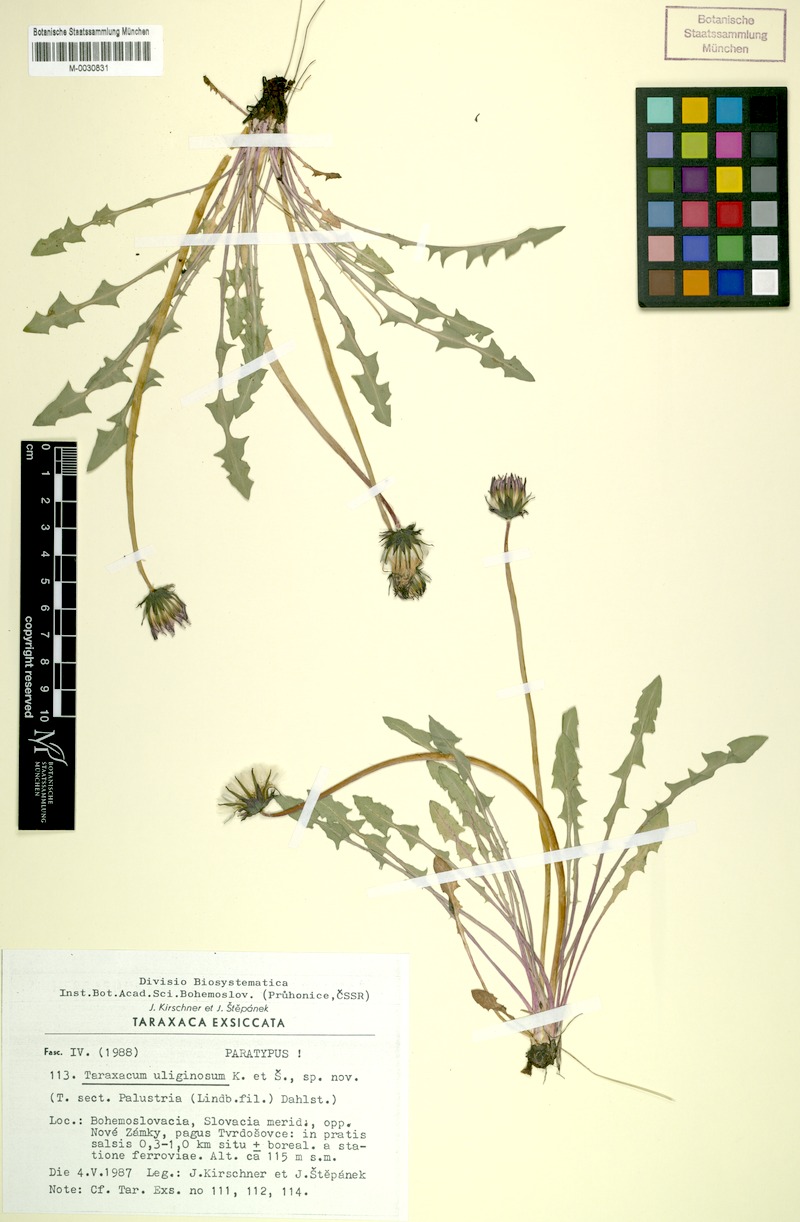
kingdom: Plantae
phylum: Tracheophyta
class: Magnoliopsida
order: Asterales
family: Asteraceae
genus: Taraxacum
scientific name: Taraxacum uliginosum
